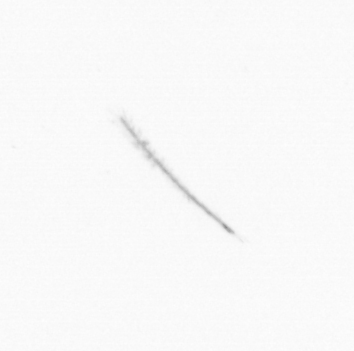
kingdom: Chromista
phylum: Ochrophyta
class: Bacillariophyceae
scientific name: Bacillariophyceae
